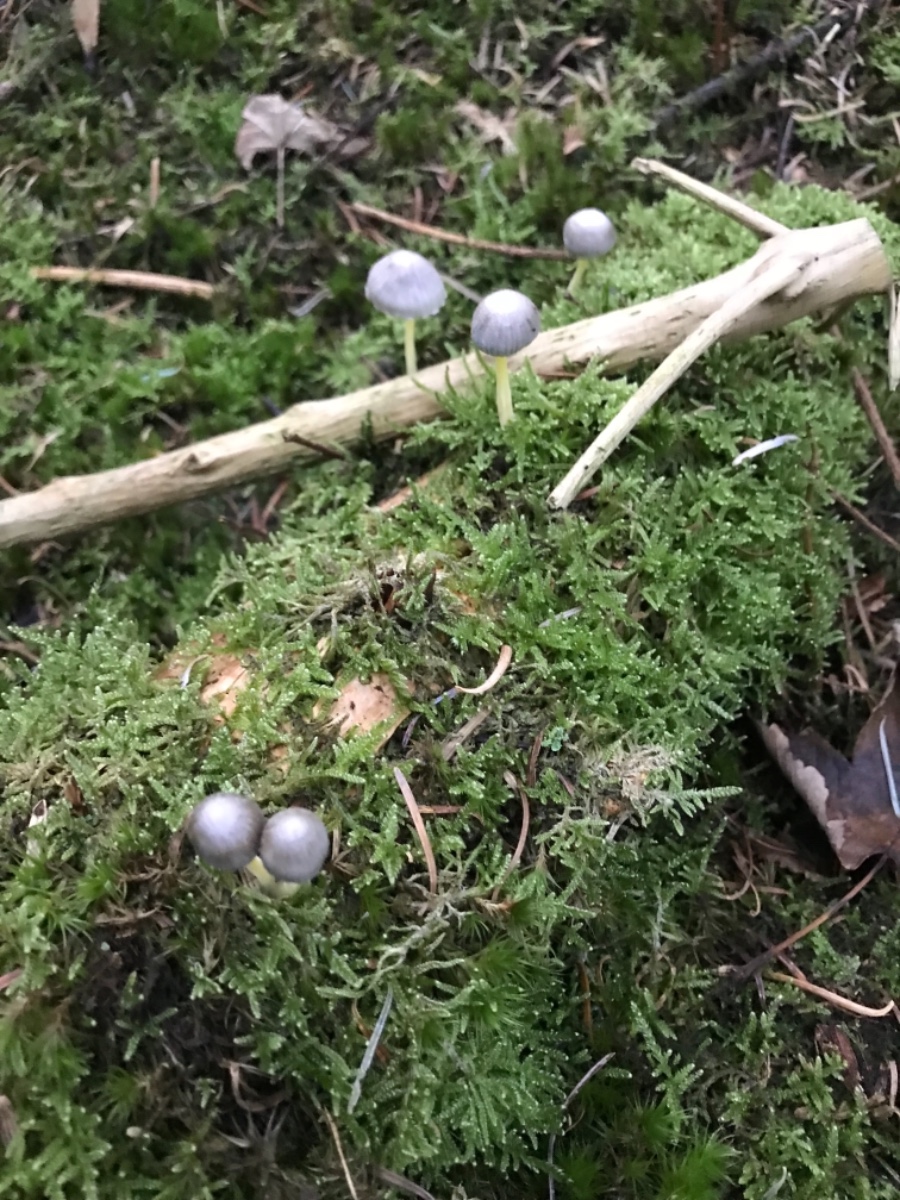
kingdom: Fungi
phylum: Basidiomycota
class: Agaricomycetes
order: Agaricales
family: Mycenaceae
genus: Mycena
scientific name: Mycena epipterygia
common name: gulstokket huesvamp
